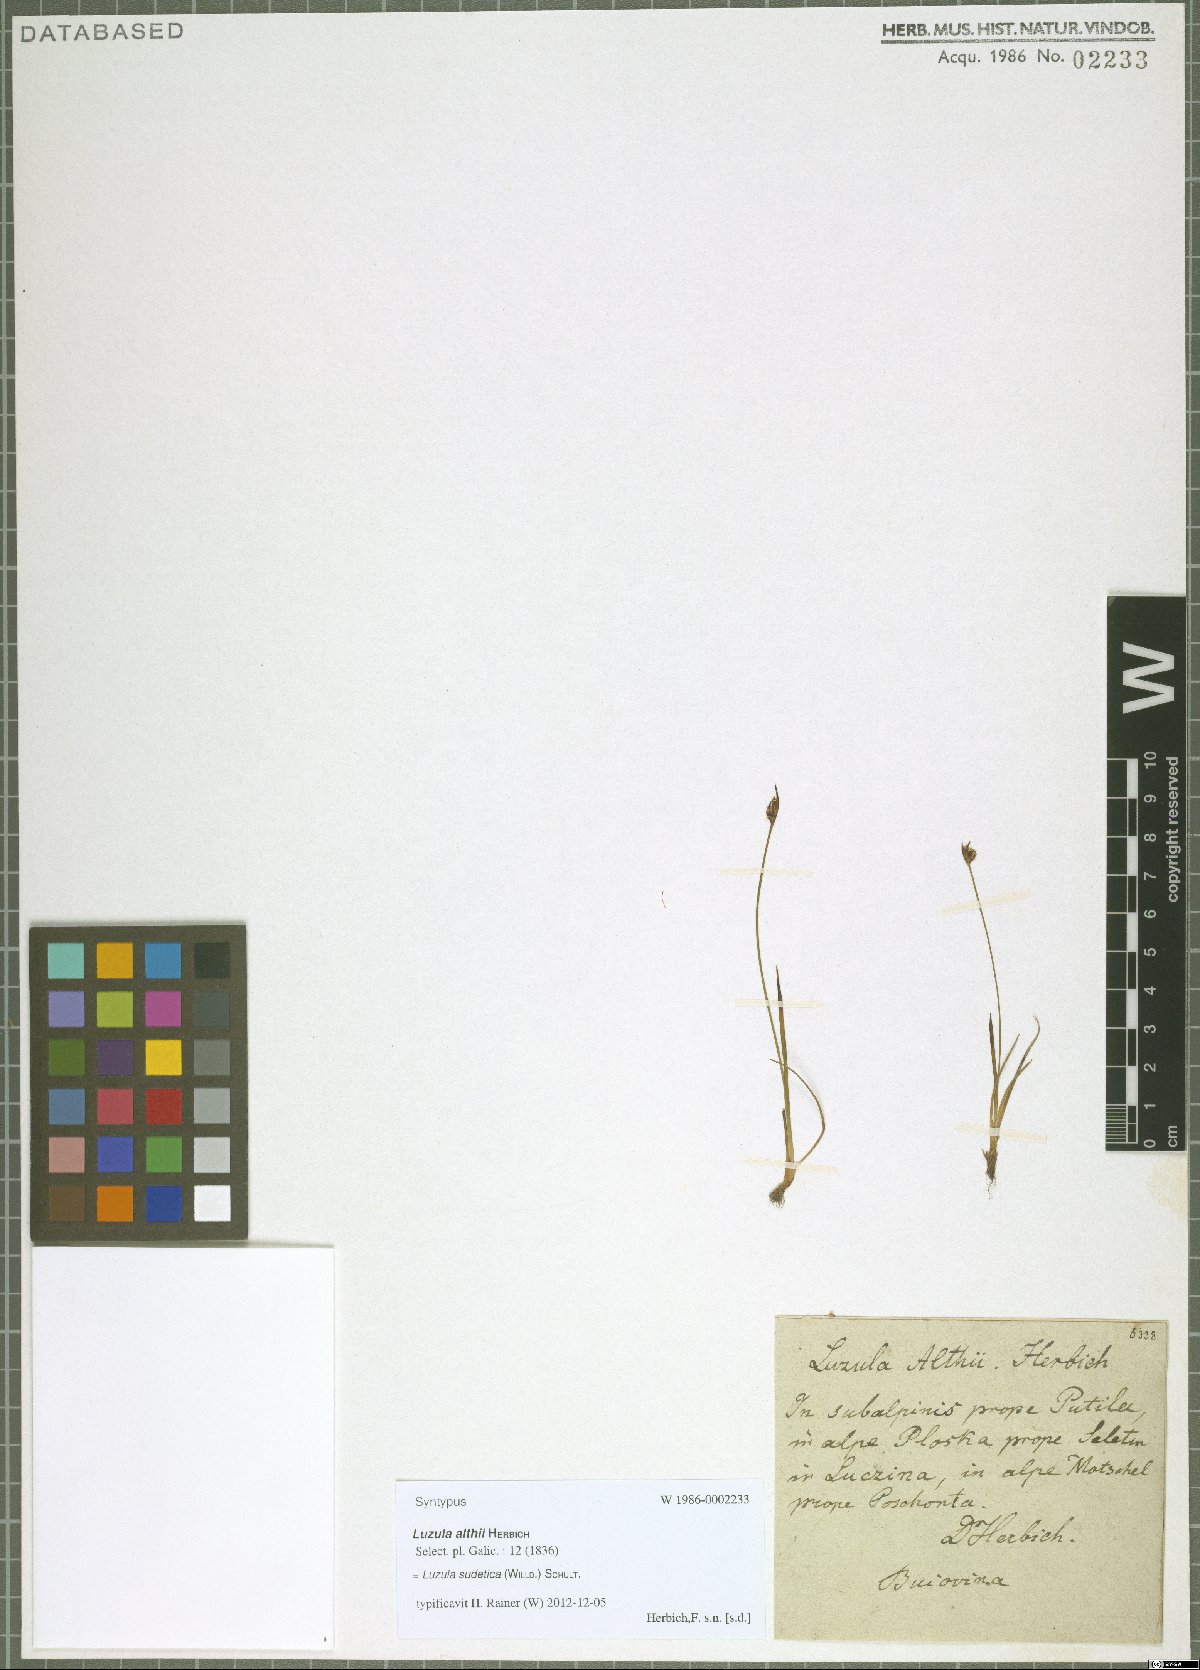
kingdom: Plantae
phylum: Tracheophyta
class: Liliopsida
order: Poales
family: Juncaceae
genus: Luzula
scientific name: Luzula sudetica
